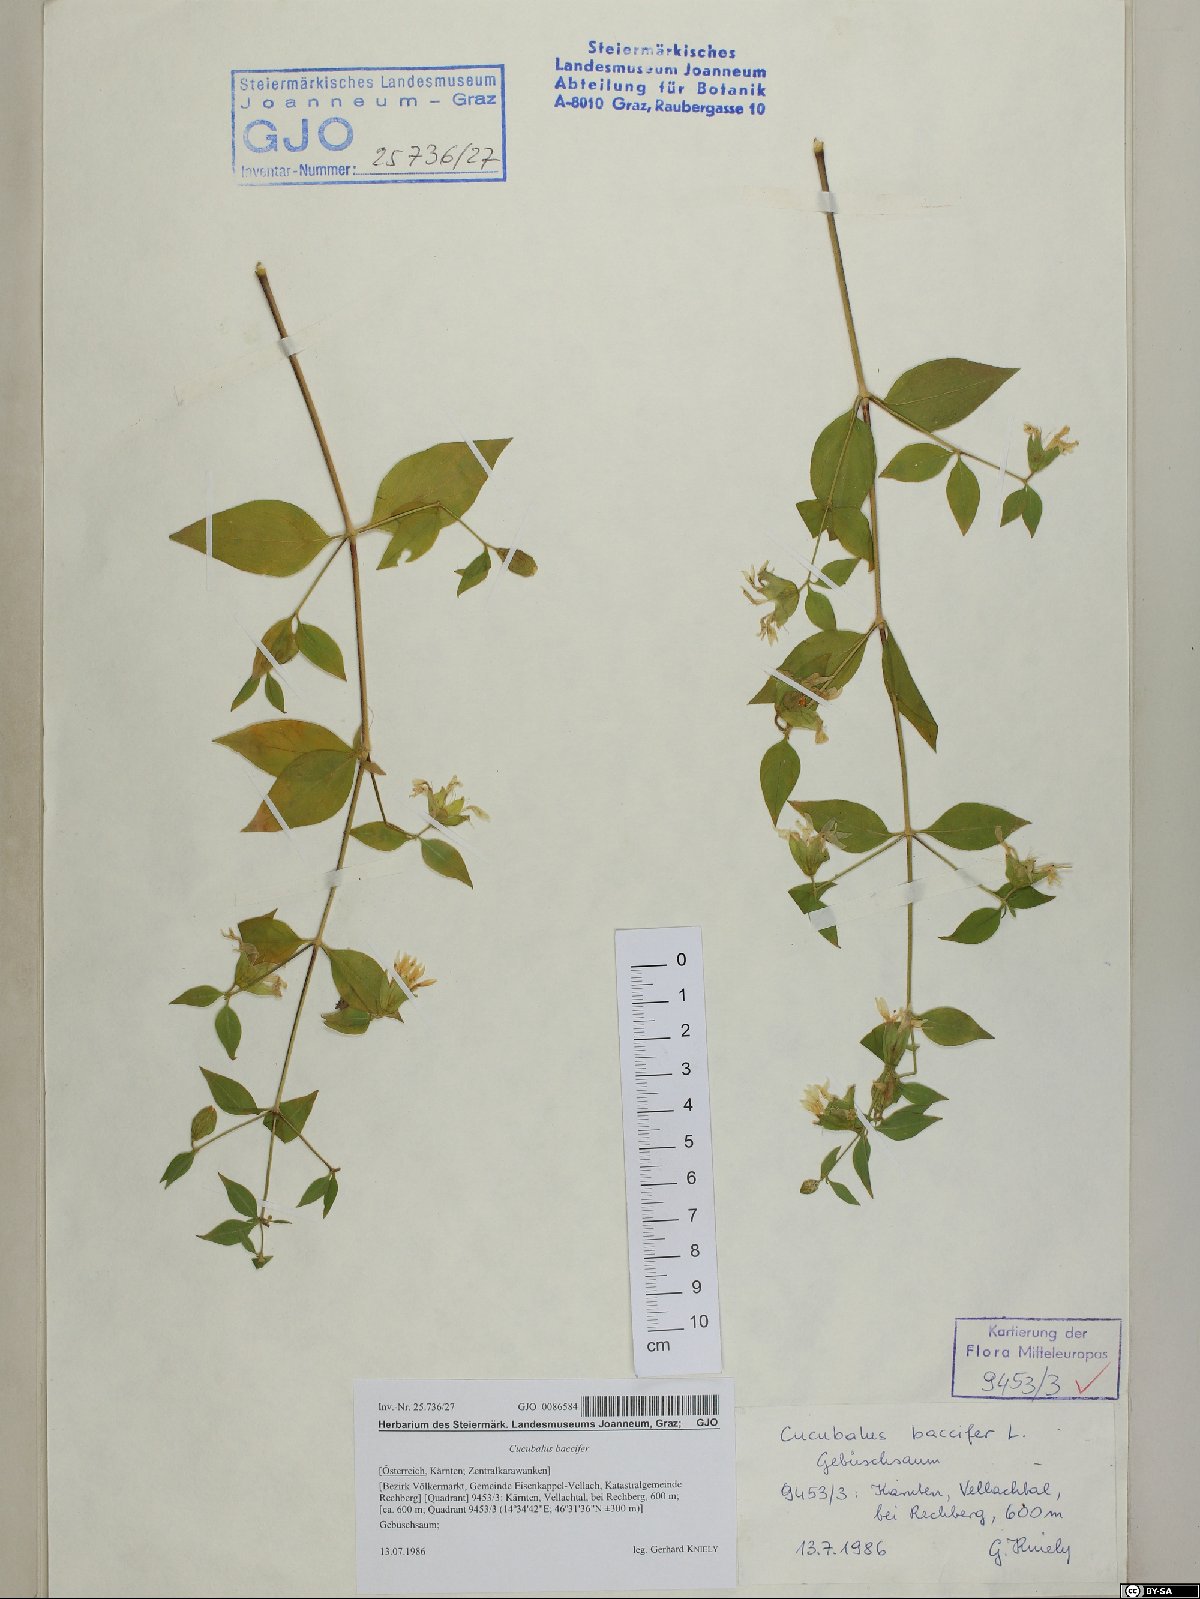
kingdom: Plantae
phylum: Tracheophyta
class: Magnoliopsida
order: Caryophyllales
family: Caryophyllaceae
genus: Silene
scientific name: Silene baccifera
